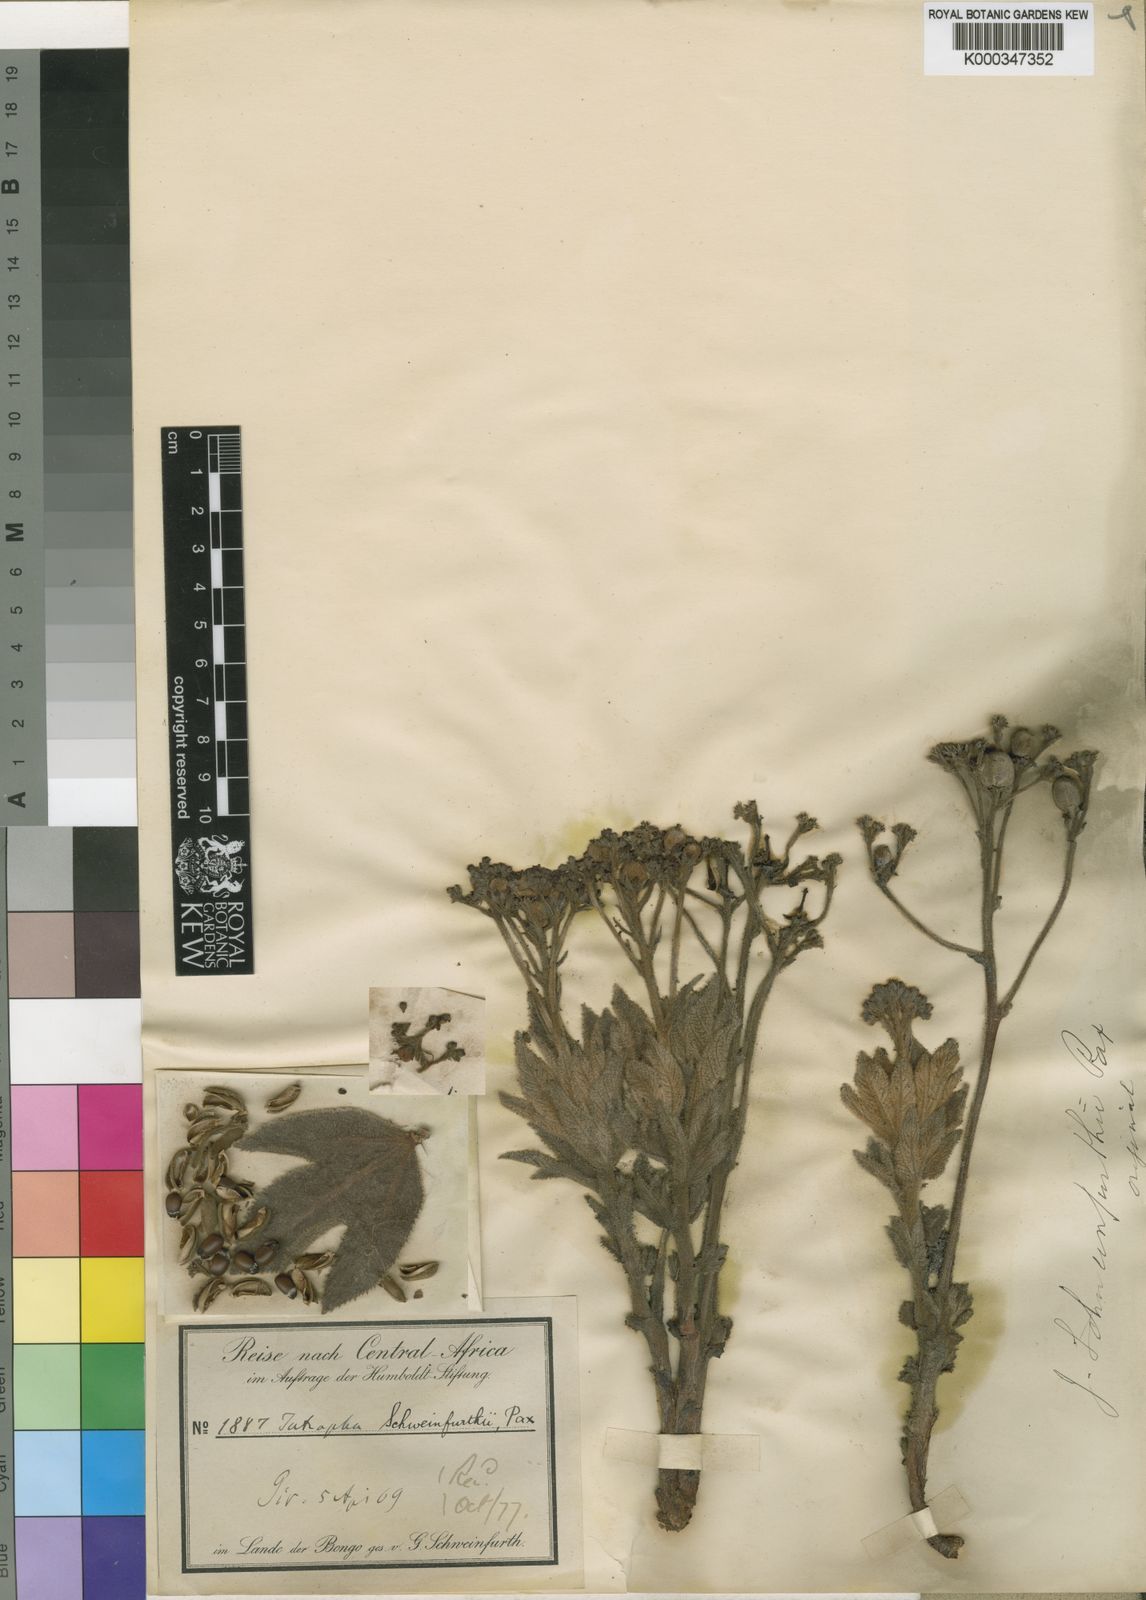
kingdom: Plantae
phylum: Tracheophyta
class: Magnoliopsida
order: Malpighiales
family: Euphorbiaceae
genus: Jatropha
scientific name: Jatropha schweinfurthii
